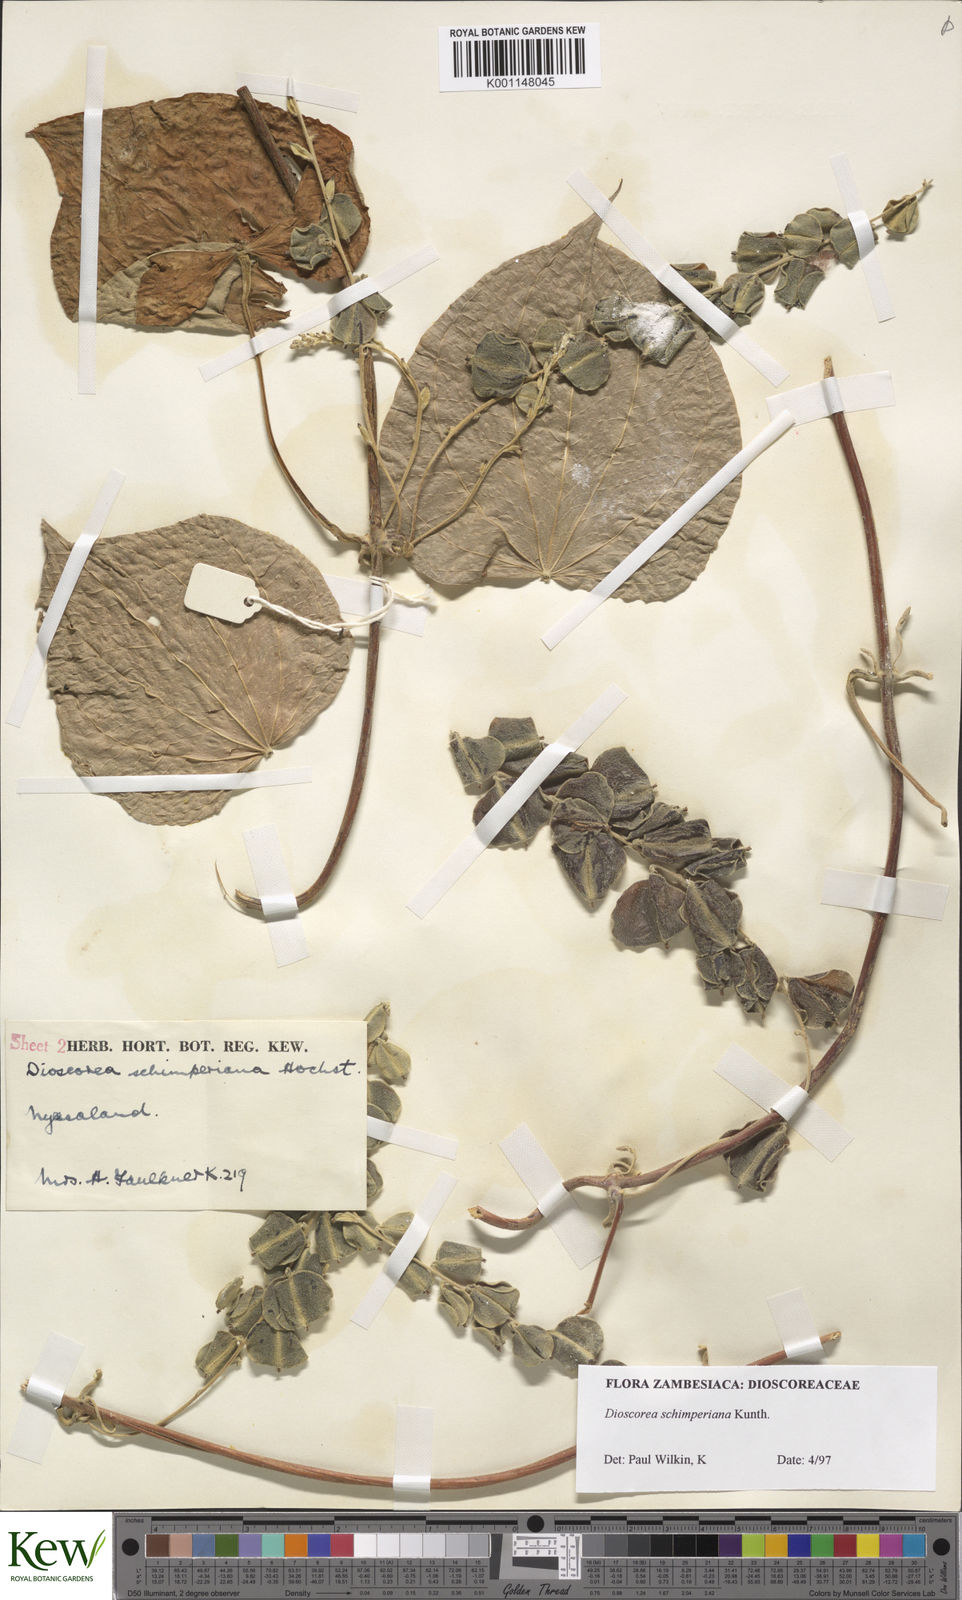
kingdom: Plantae
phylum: Tracheophyta
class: Liliopsida
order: Dioscoreales
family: Dioscoreaceae
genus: Dioscorea
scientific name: Dioscorea schimperiana
